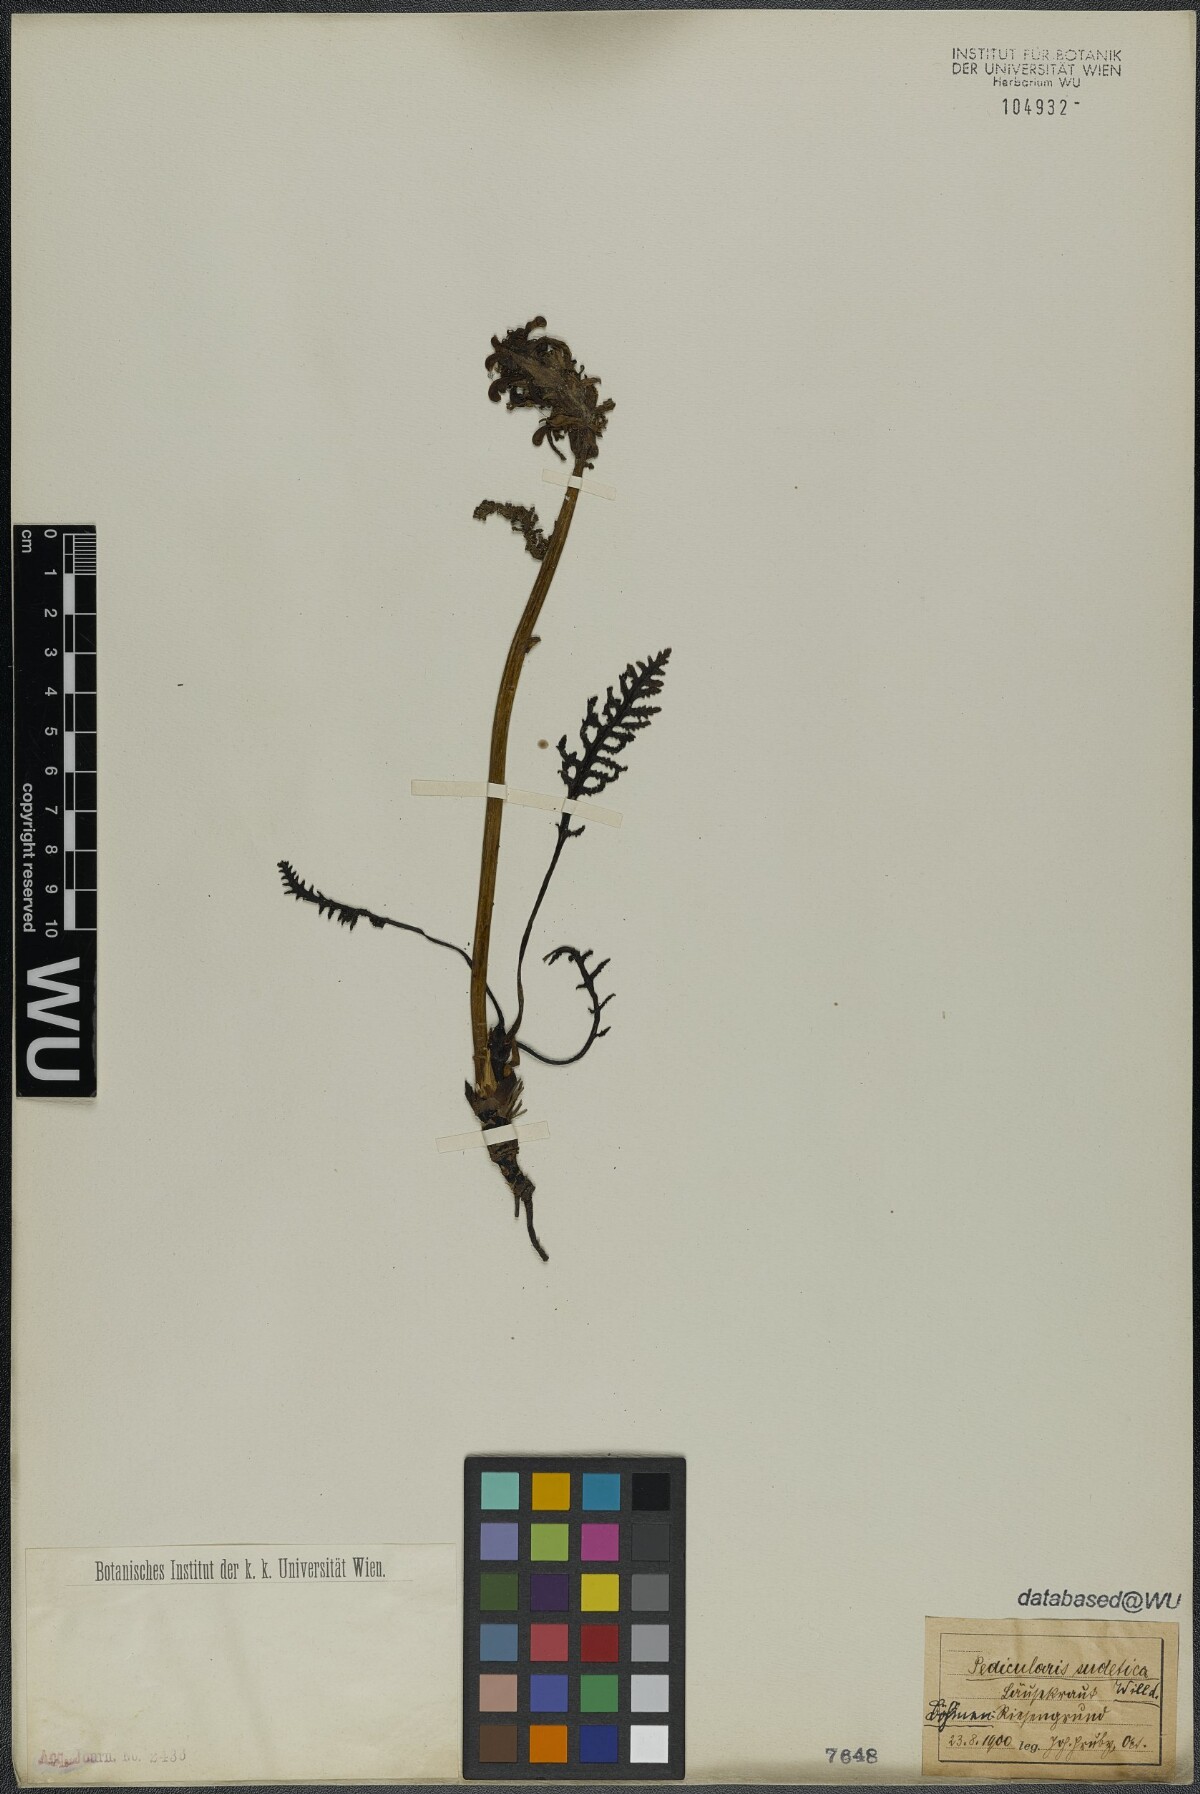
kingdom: Plantae
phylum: Tracheophyta
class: Magnoliopsida
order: Lamiales
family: Orobanchaceae
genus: Pedicularis
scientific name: Pedicularis sudetica
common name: Sudeten lousewort
